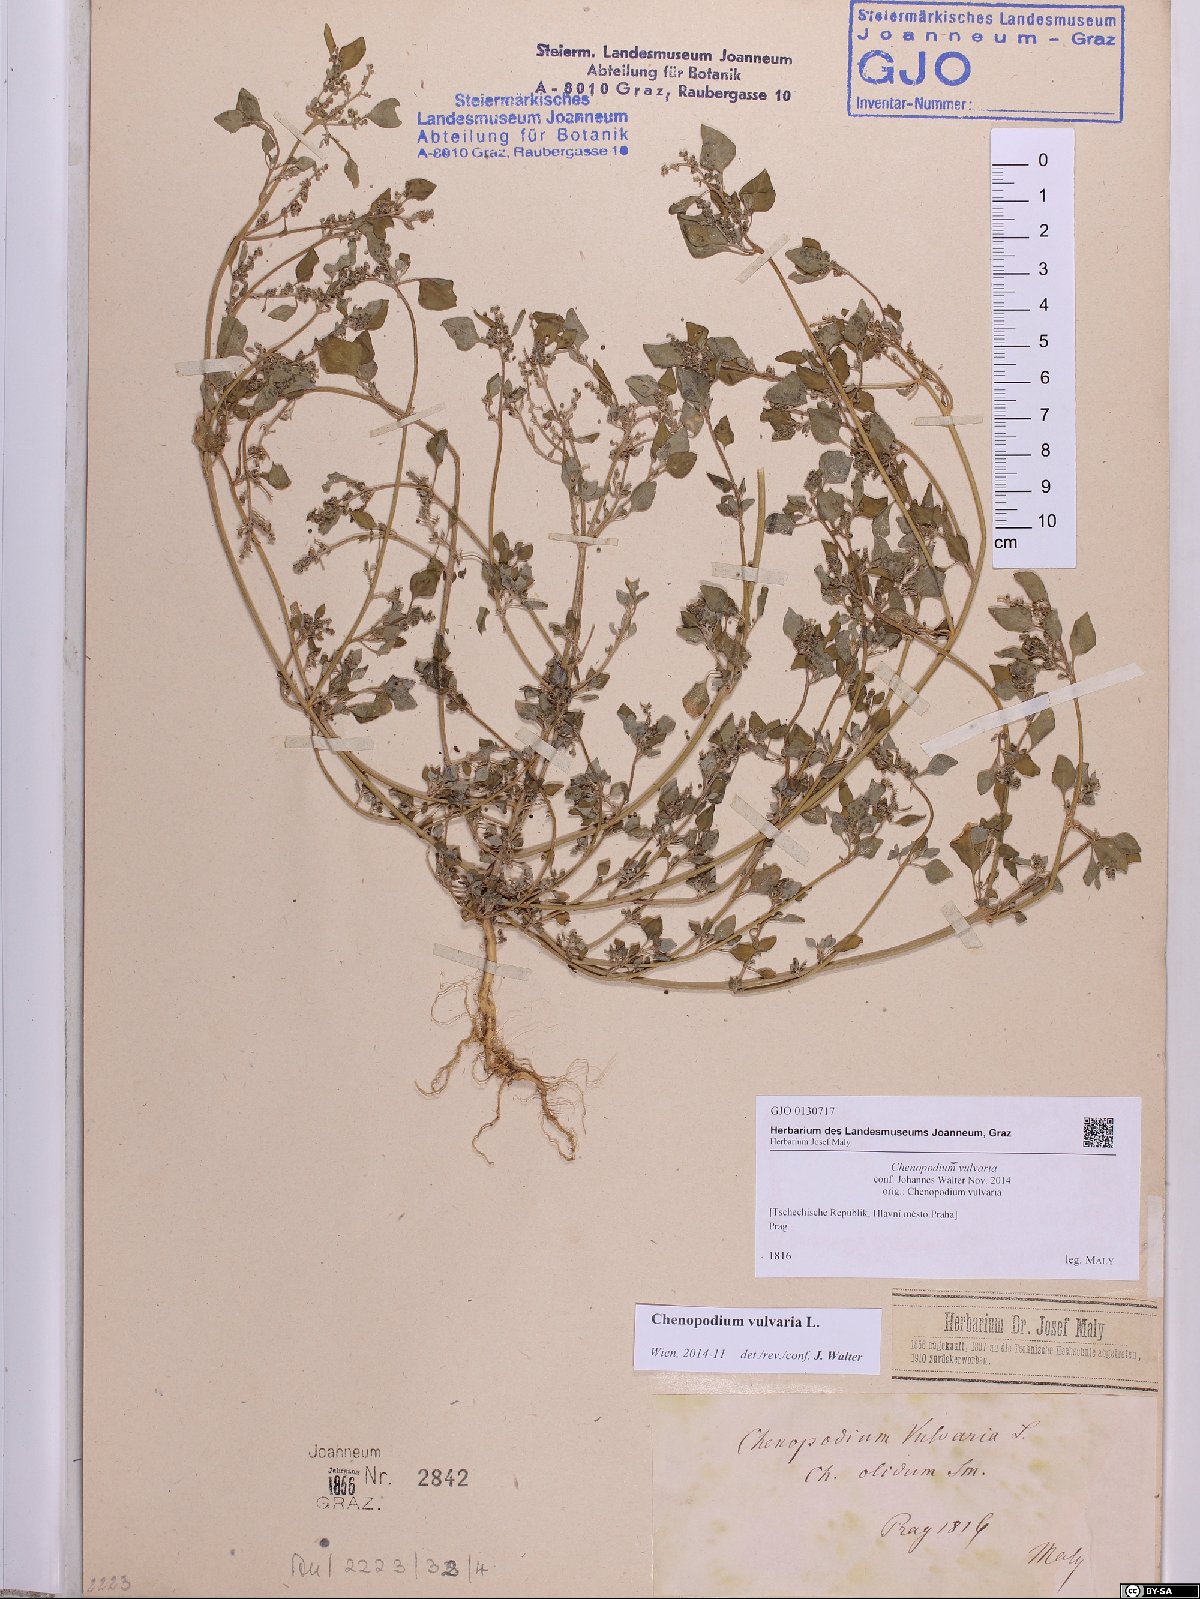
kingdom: Plantae
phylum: Tracheophyta
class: Magnoliopsida
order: Caryophyllales
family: Amaranthaceae
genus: Chenopodium
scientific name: Chenopodium vulvaria
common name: Stinking goosefoot
